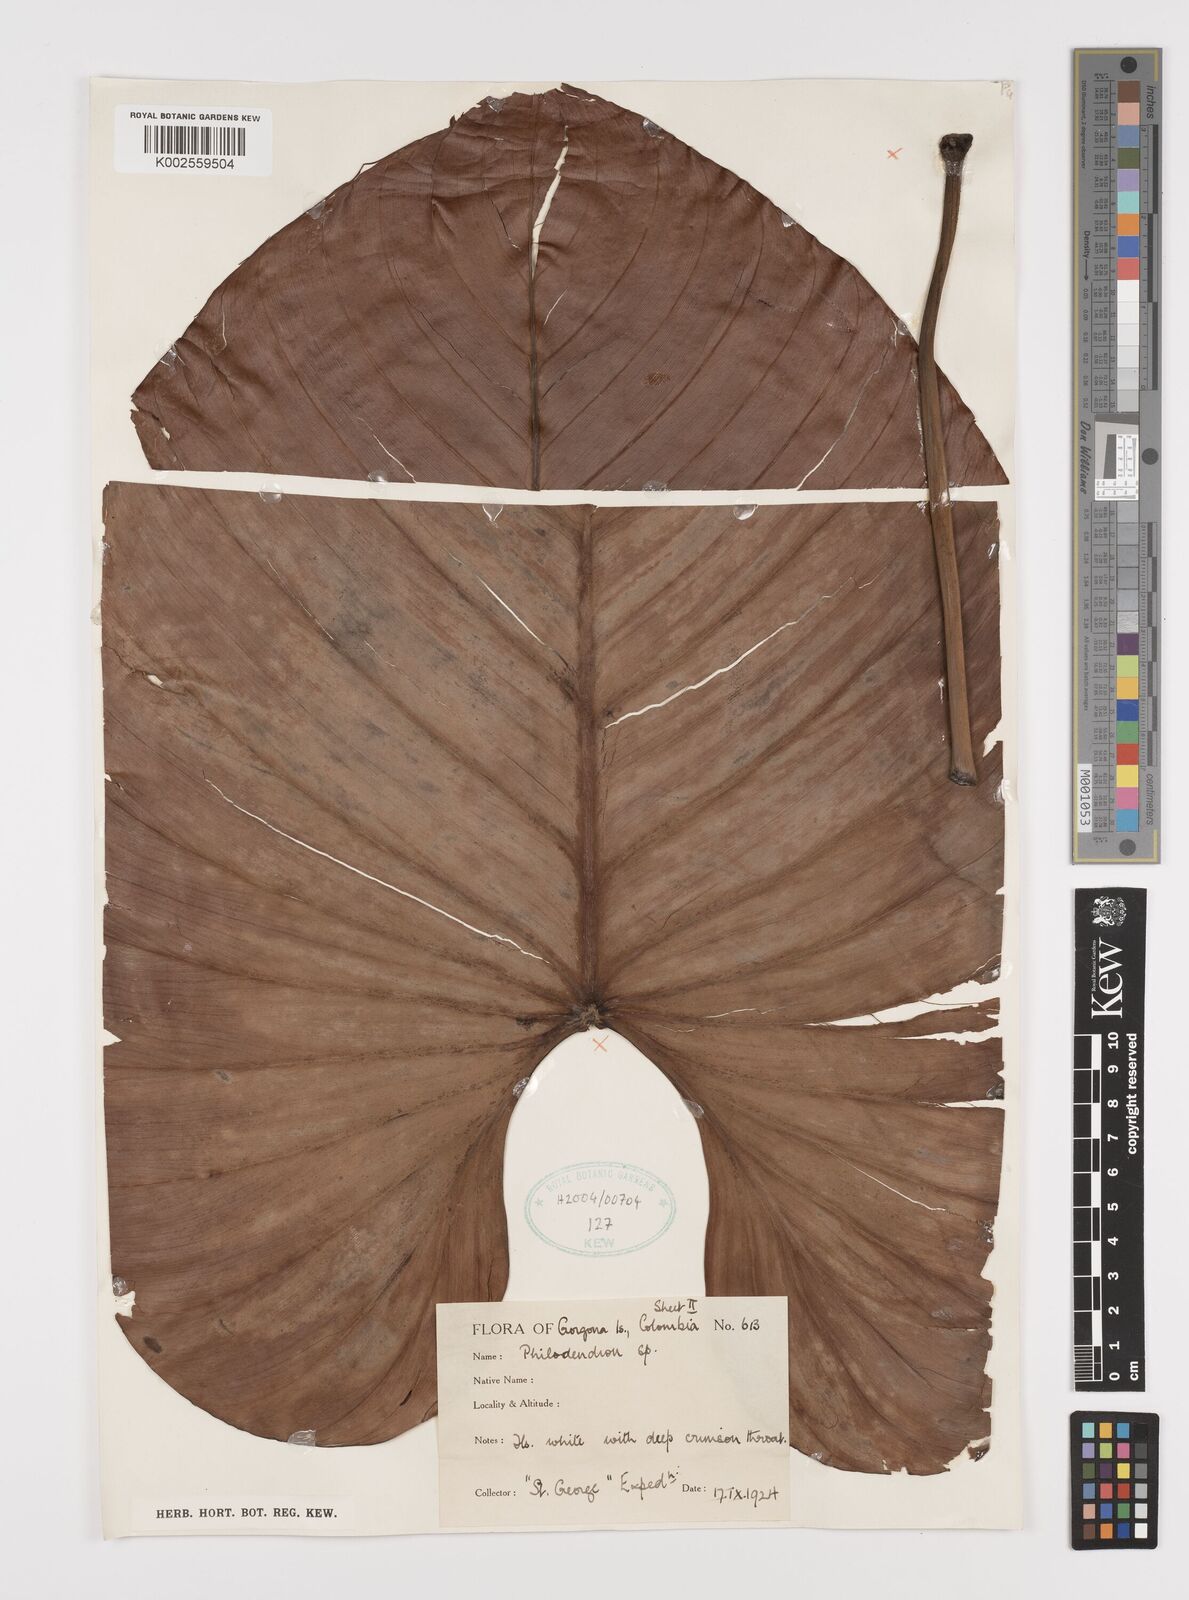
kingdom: Plantae
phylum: Tracheophyta
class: Liliopsida
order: Alismatales
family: Araceae
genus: Philodendron
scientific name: Philodendron
